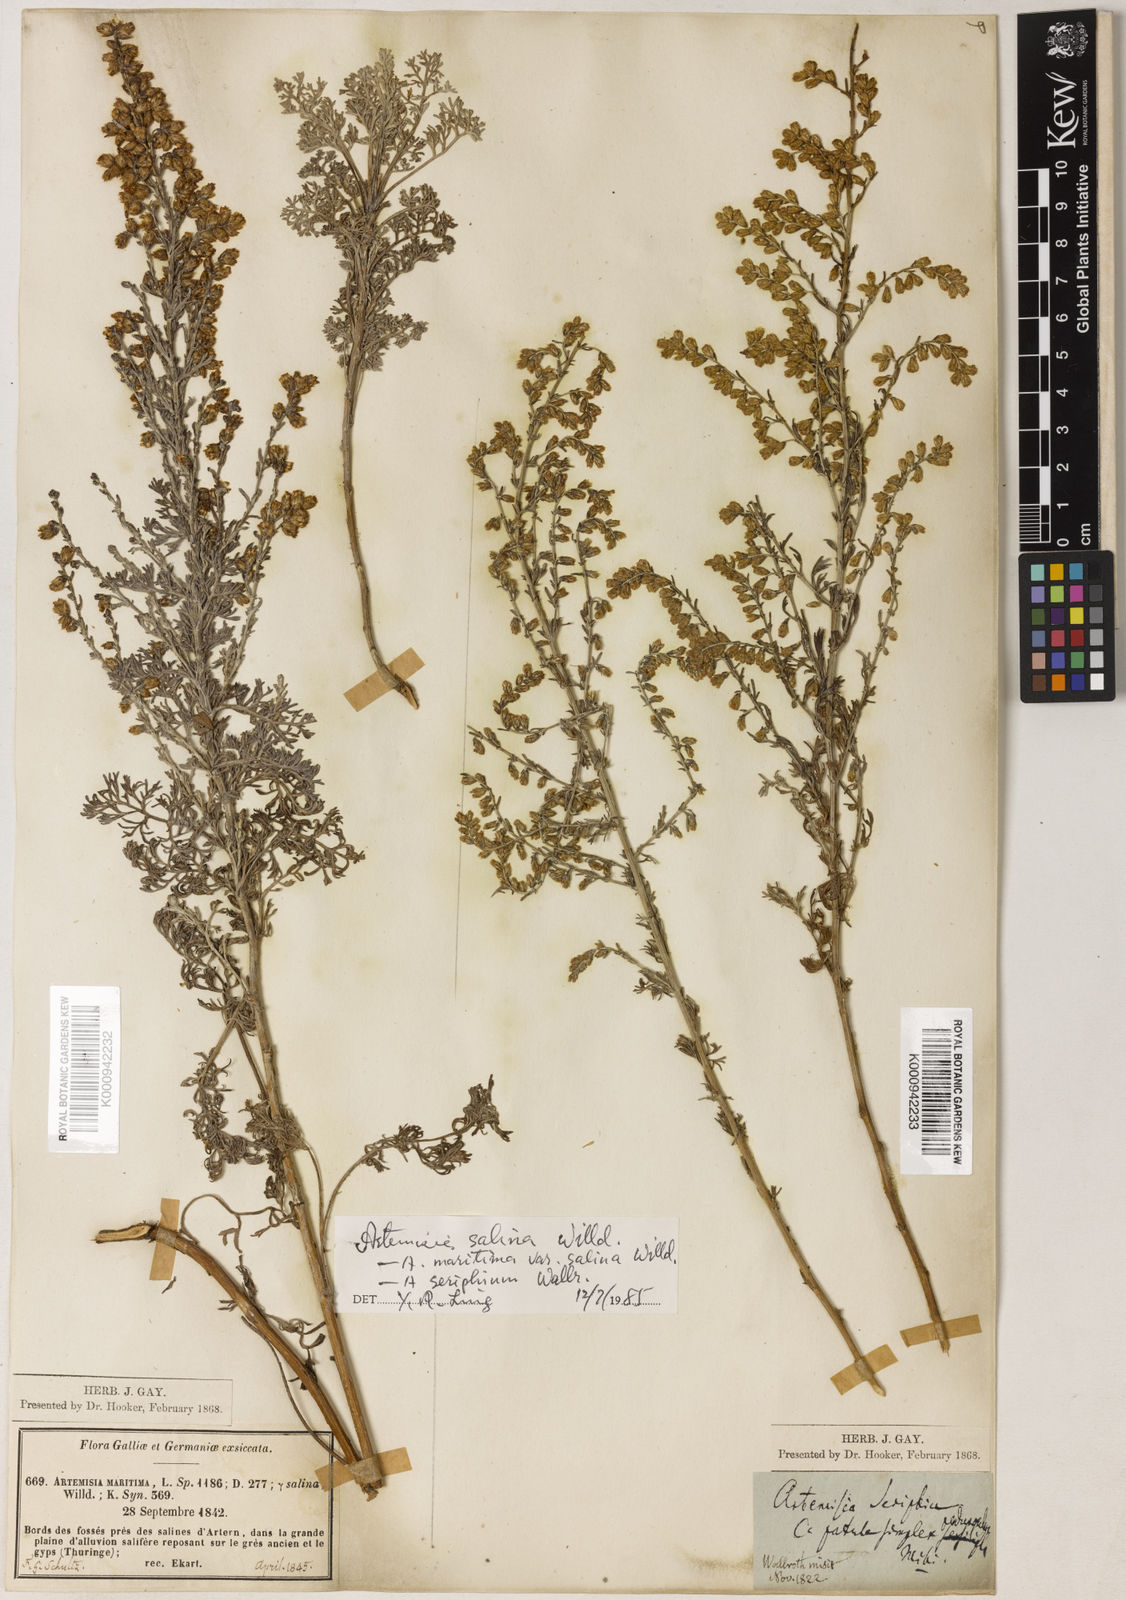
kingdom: Plantae
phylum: Tracheophyta
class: Magnoliopsida
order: Asterales
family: Asteraceae
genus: Artemisia
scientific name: Artemisia maritima
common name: Wormseed
